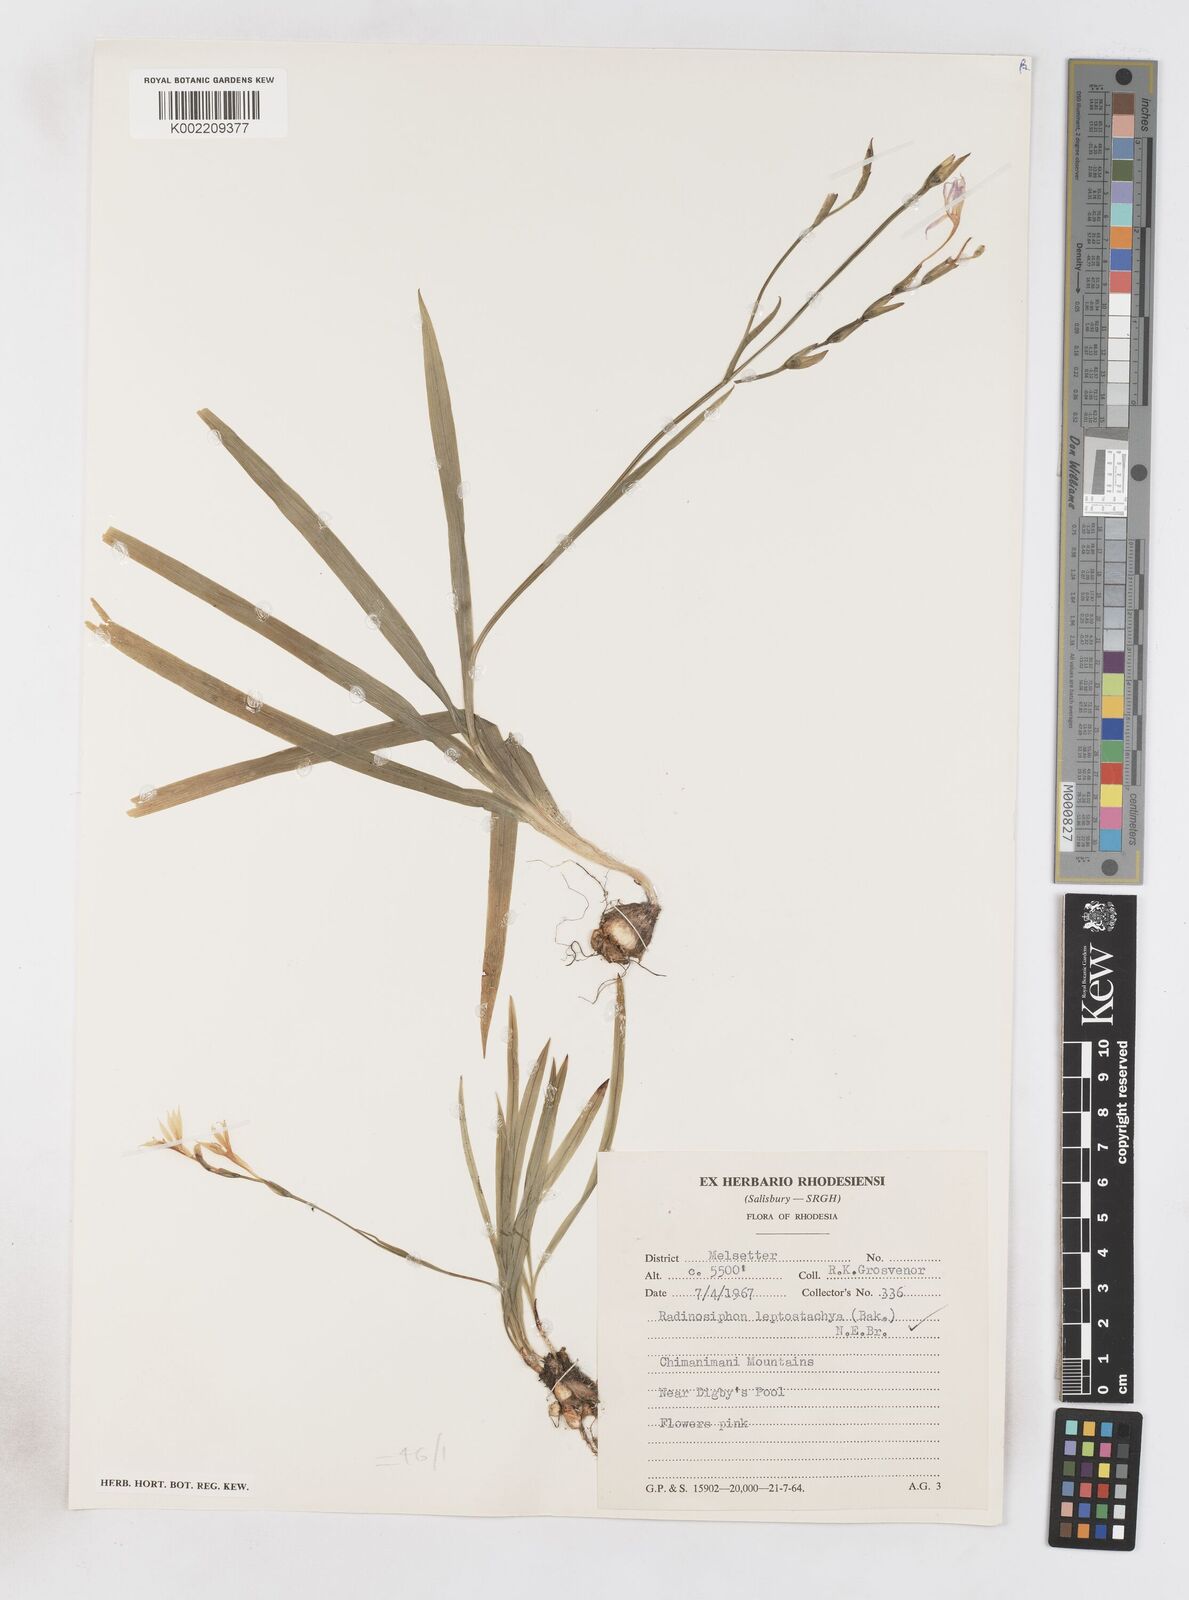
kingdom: Plantae
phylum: Tracheophyta
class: Liliopsida
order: Asparagales
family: Iridaceae
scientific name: Iridaceae
